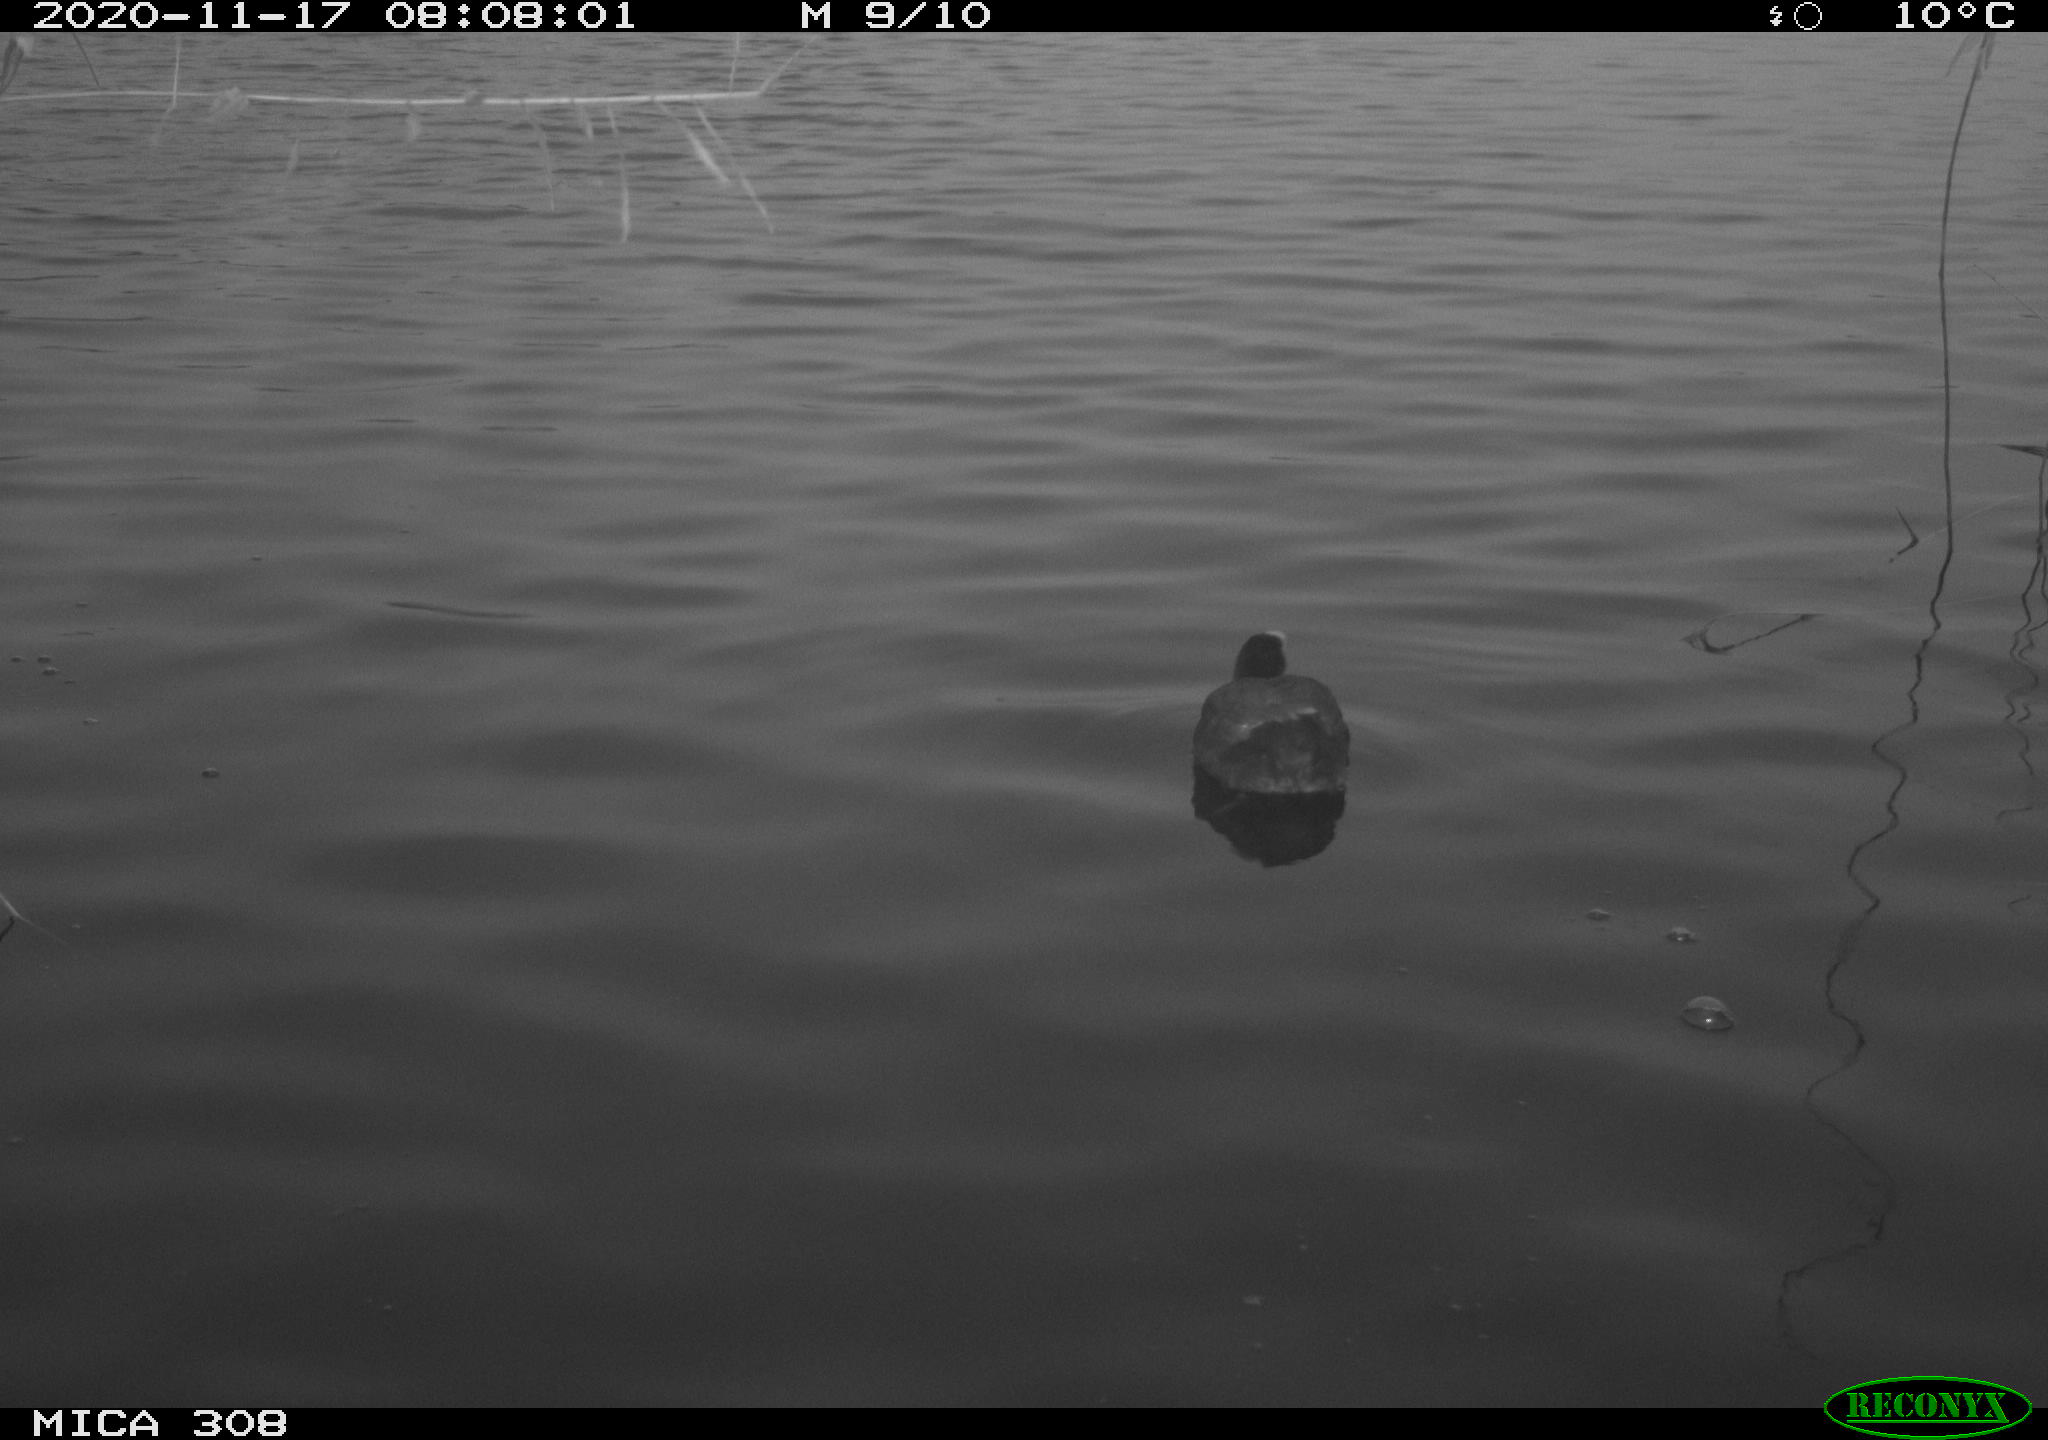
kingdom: Animalia
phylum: Chordata
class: Aves
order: Gruiformes
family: Rallidae
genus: Fulica
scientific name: Fulica atra
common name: Eurasian coot
